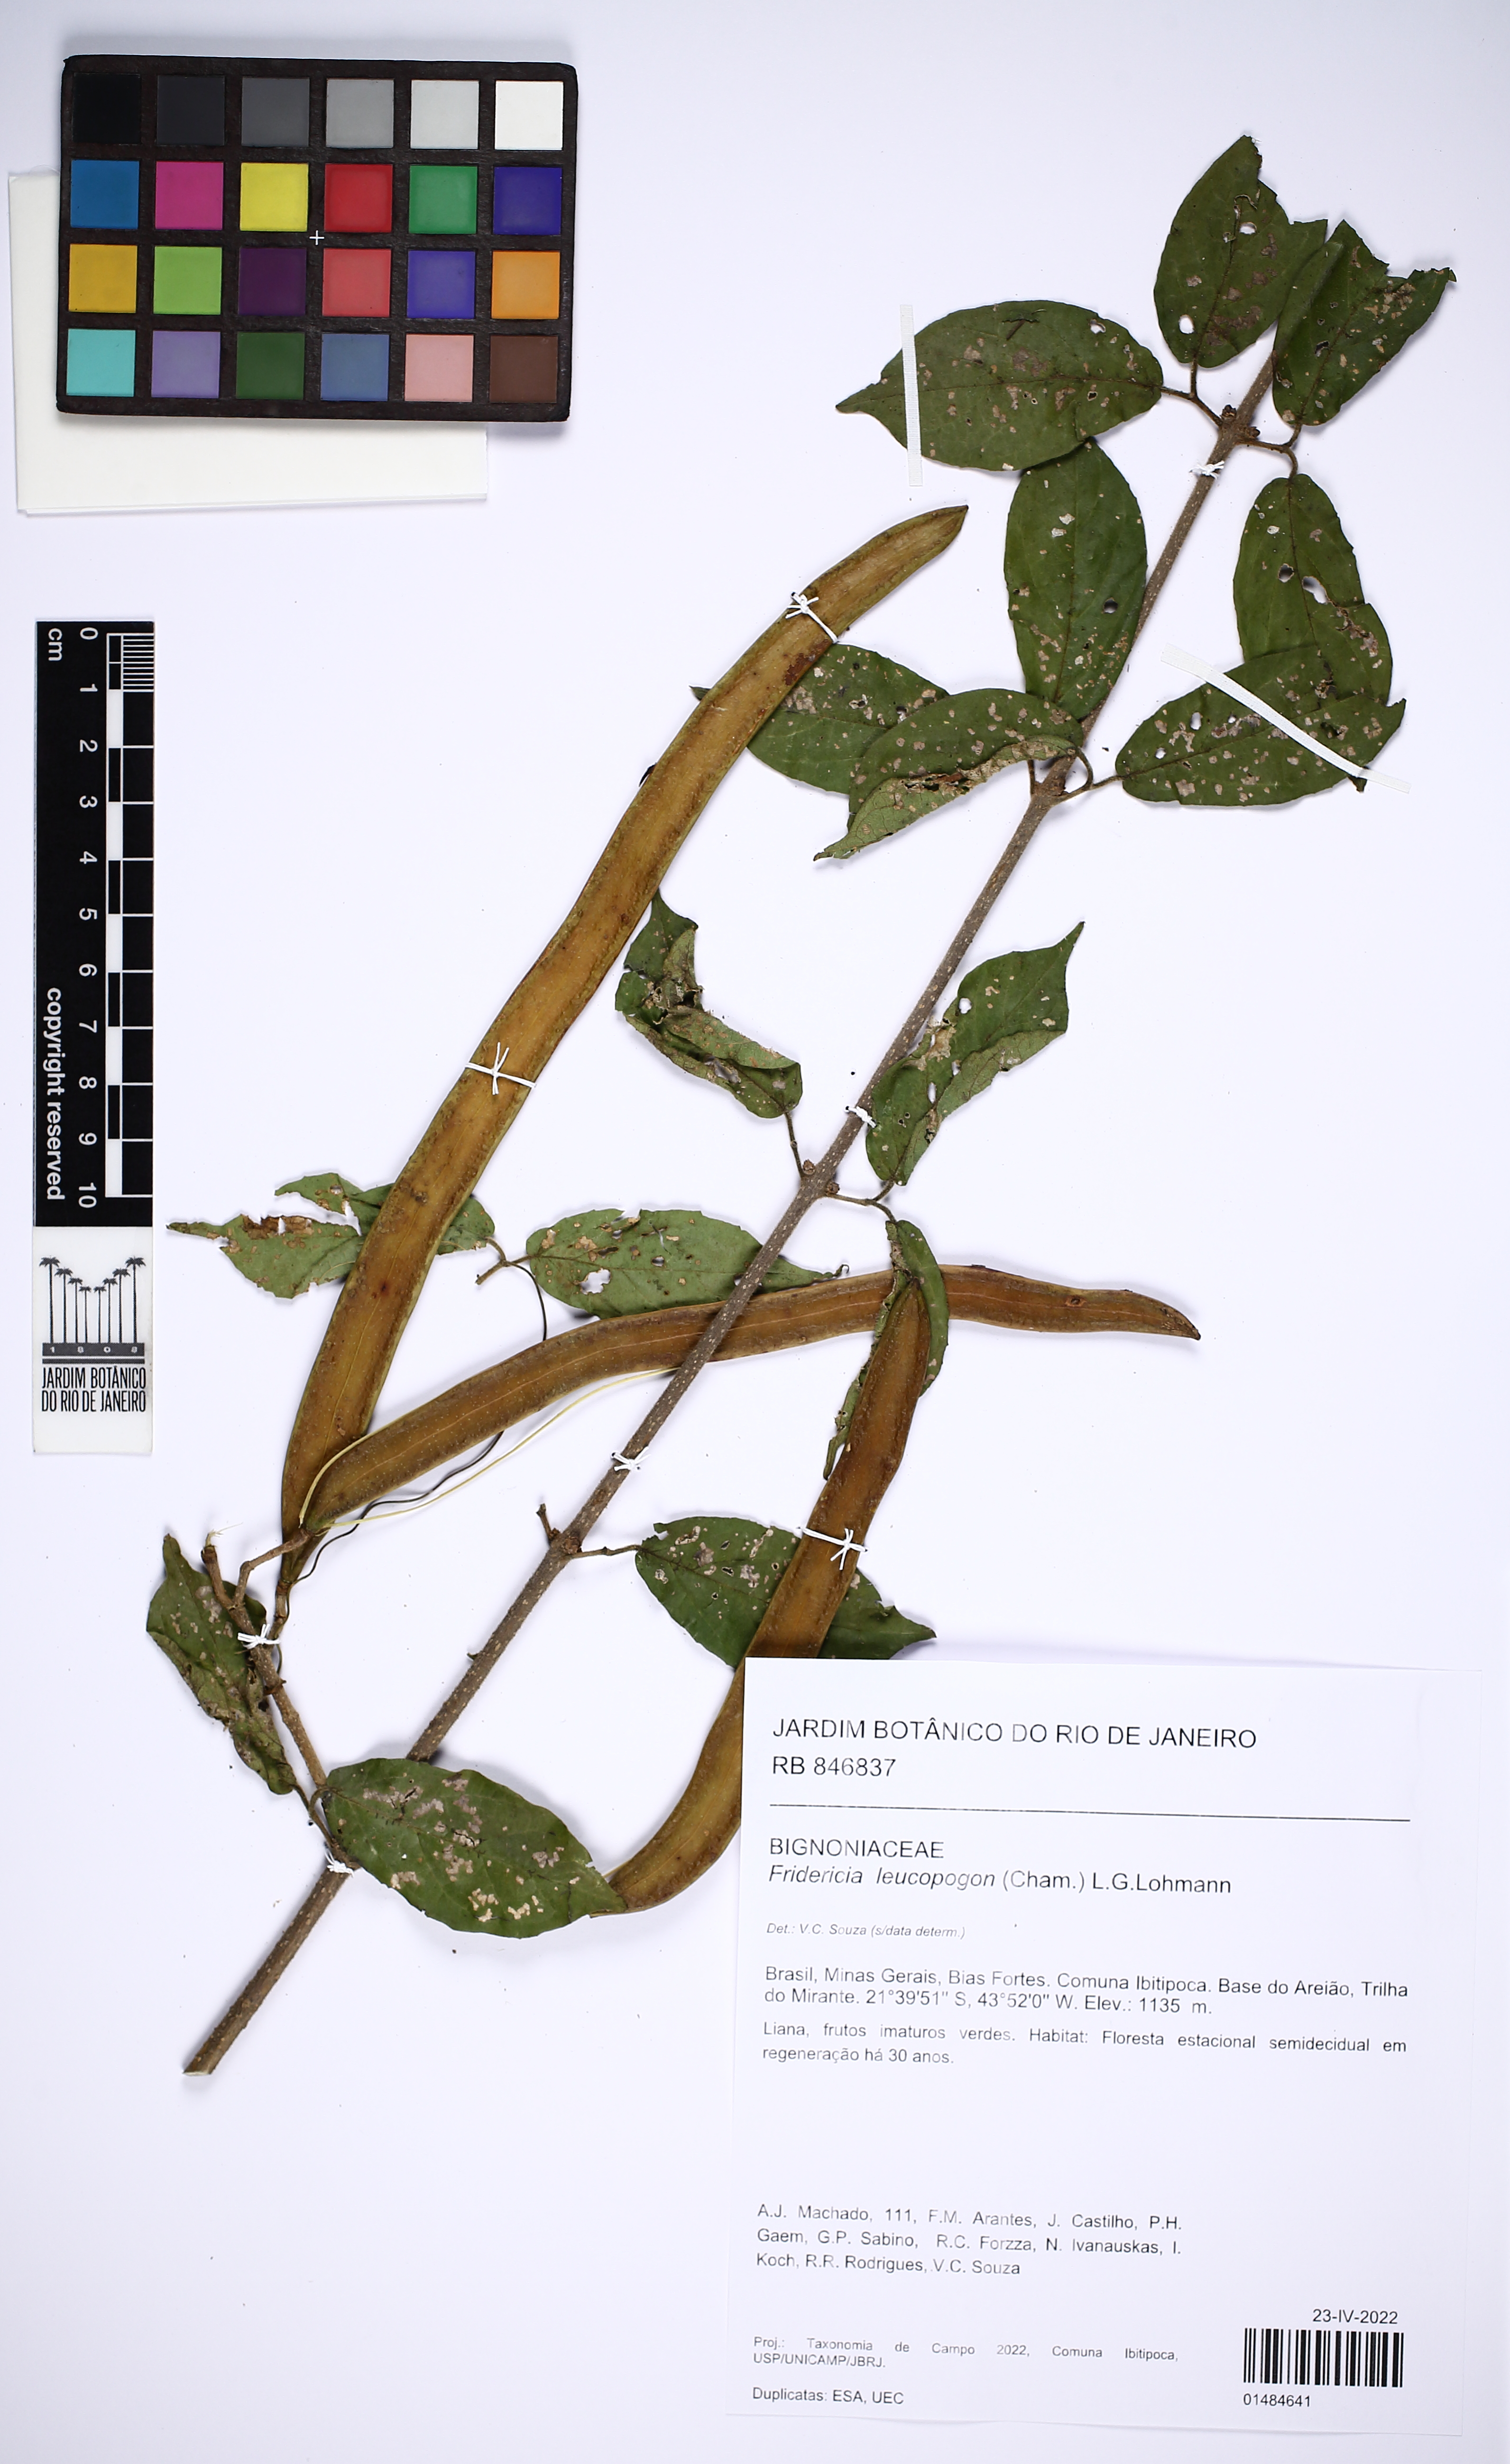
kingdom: Plantae
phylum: Tracheophyta
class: Magnoliopsida
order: Lamiales
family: Bignoniaceae
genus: Fridericia
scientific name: Fridericia leucopogon
